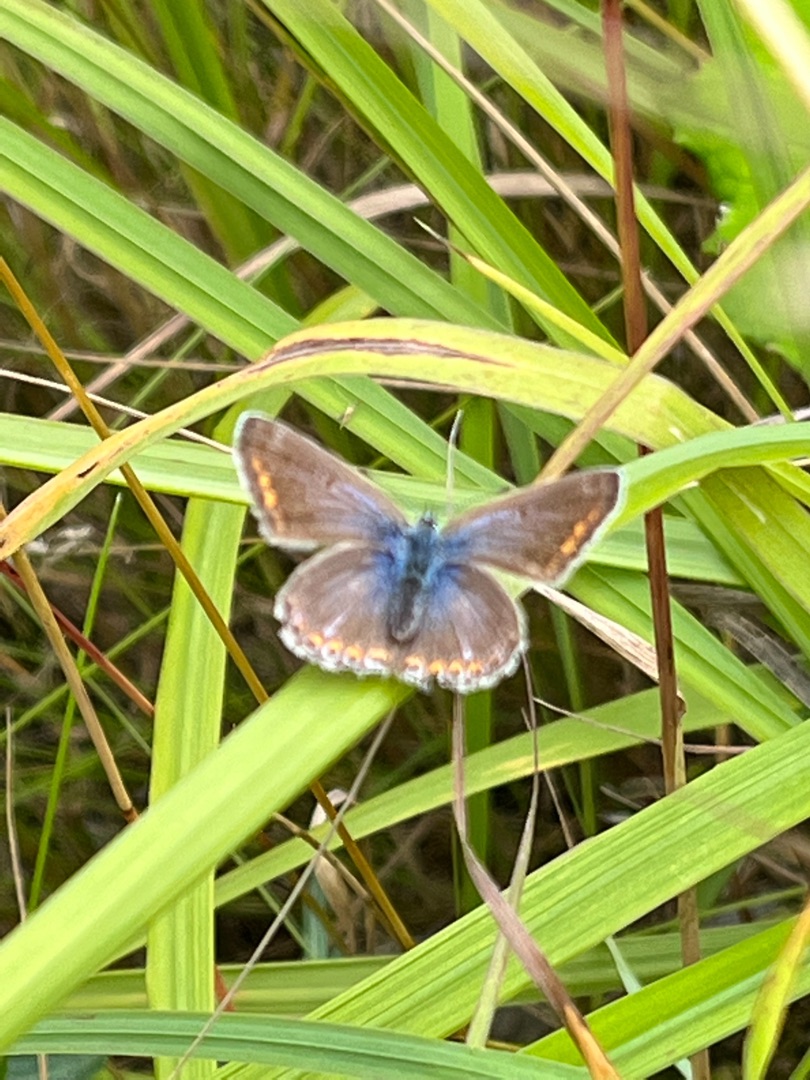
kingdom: Animalia
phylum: Arthropoda
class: Insecta
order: Lepidoptera
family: Lycaenidae
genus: Polyommatus
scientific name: Polyommatus icarus
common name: Almindelig blåfugl
